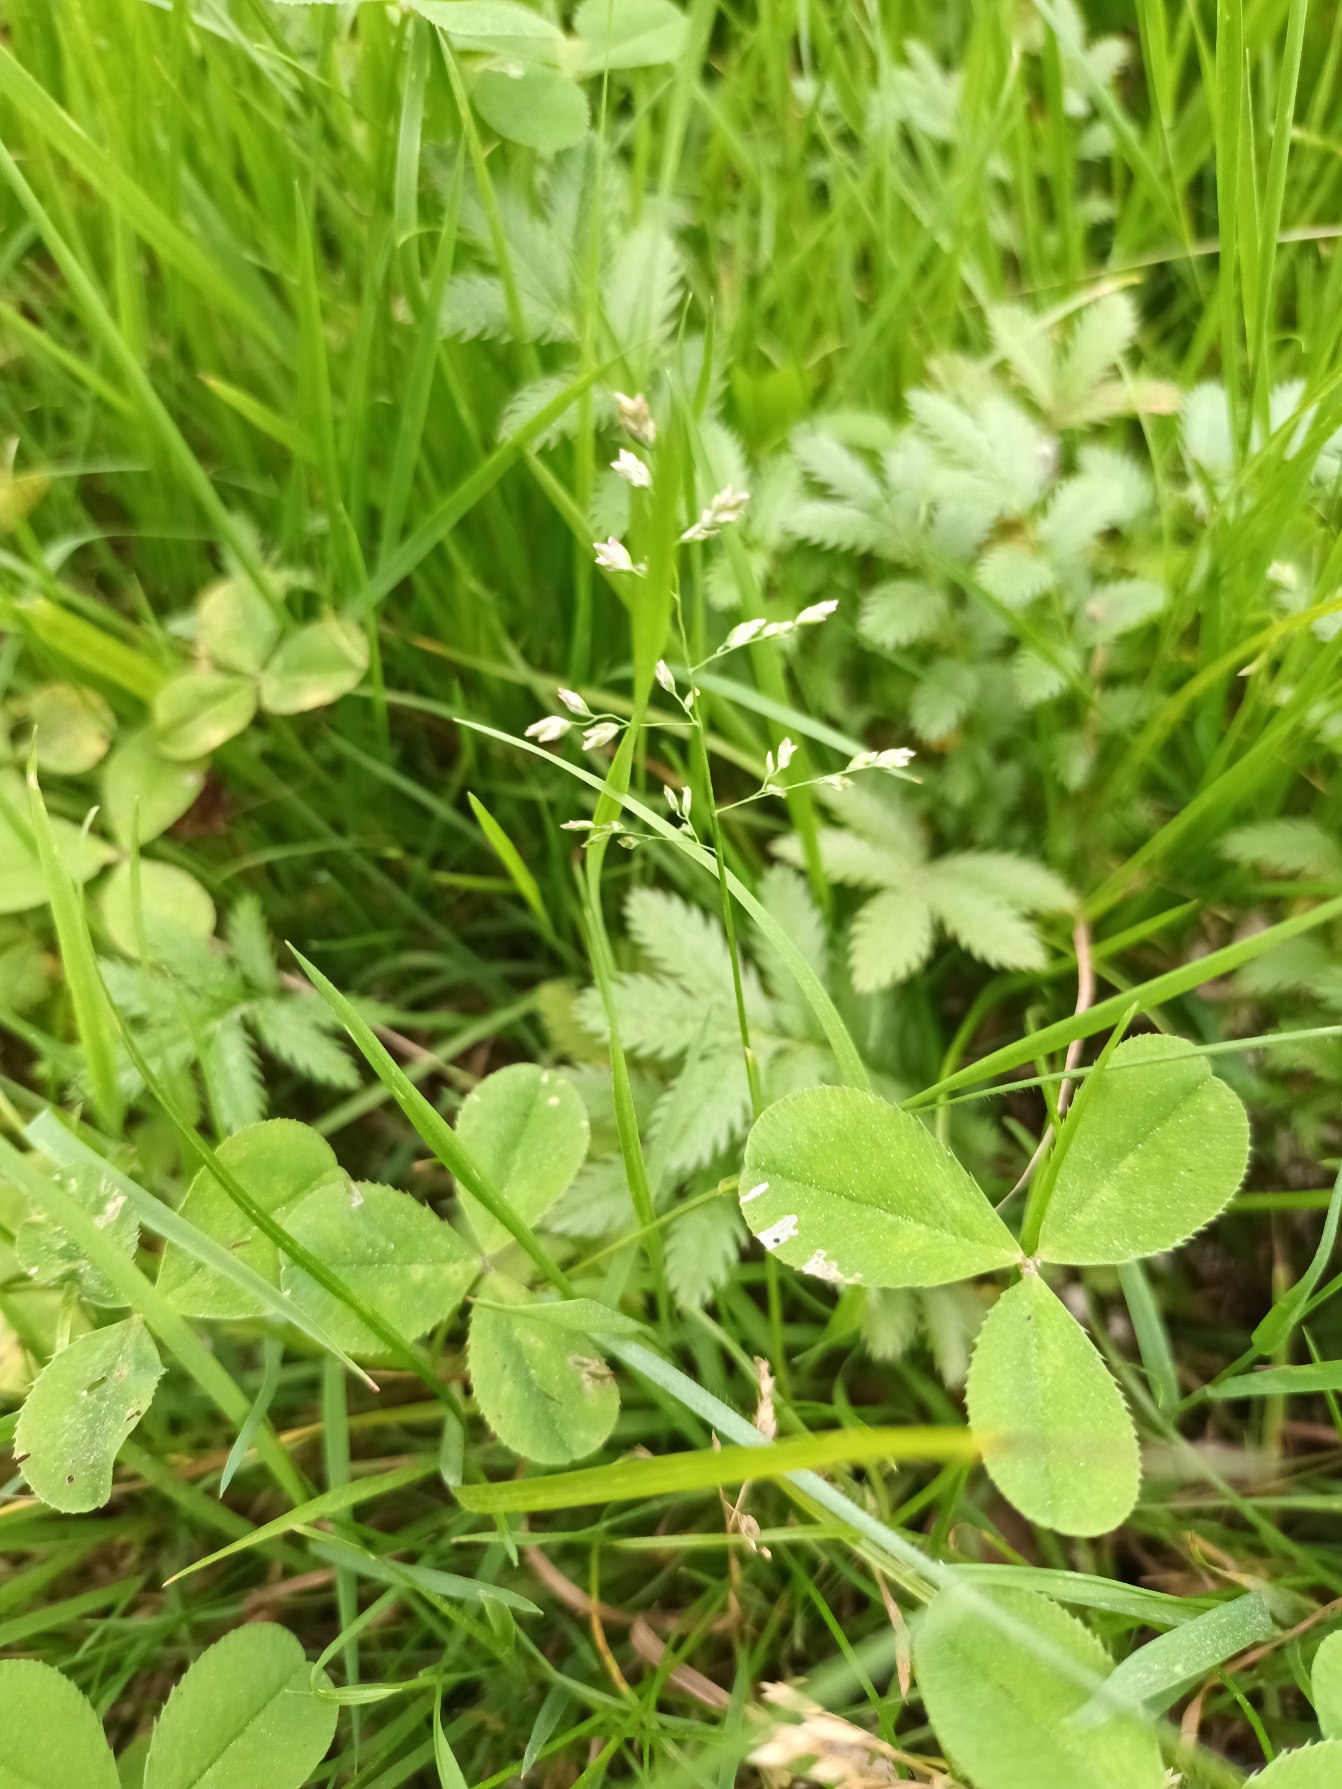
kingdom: Plantae
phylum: Tracheophyta
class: Liliopsida
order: Poales
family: Poaceae
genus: Poa
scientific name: Poa annua
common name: Enårig rapgræs
